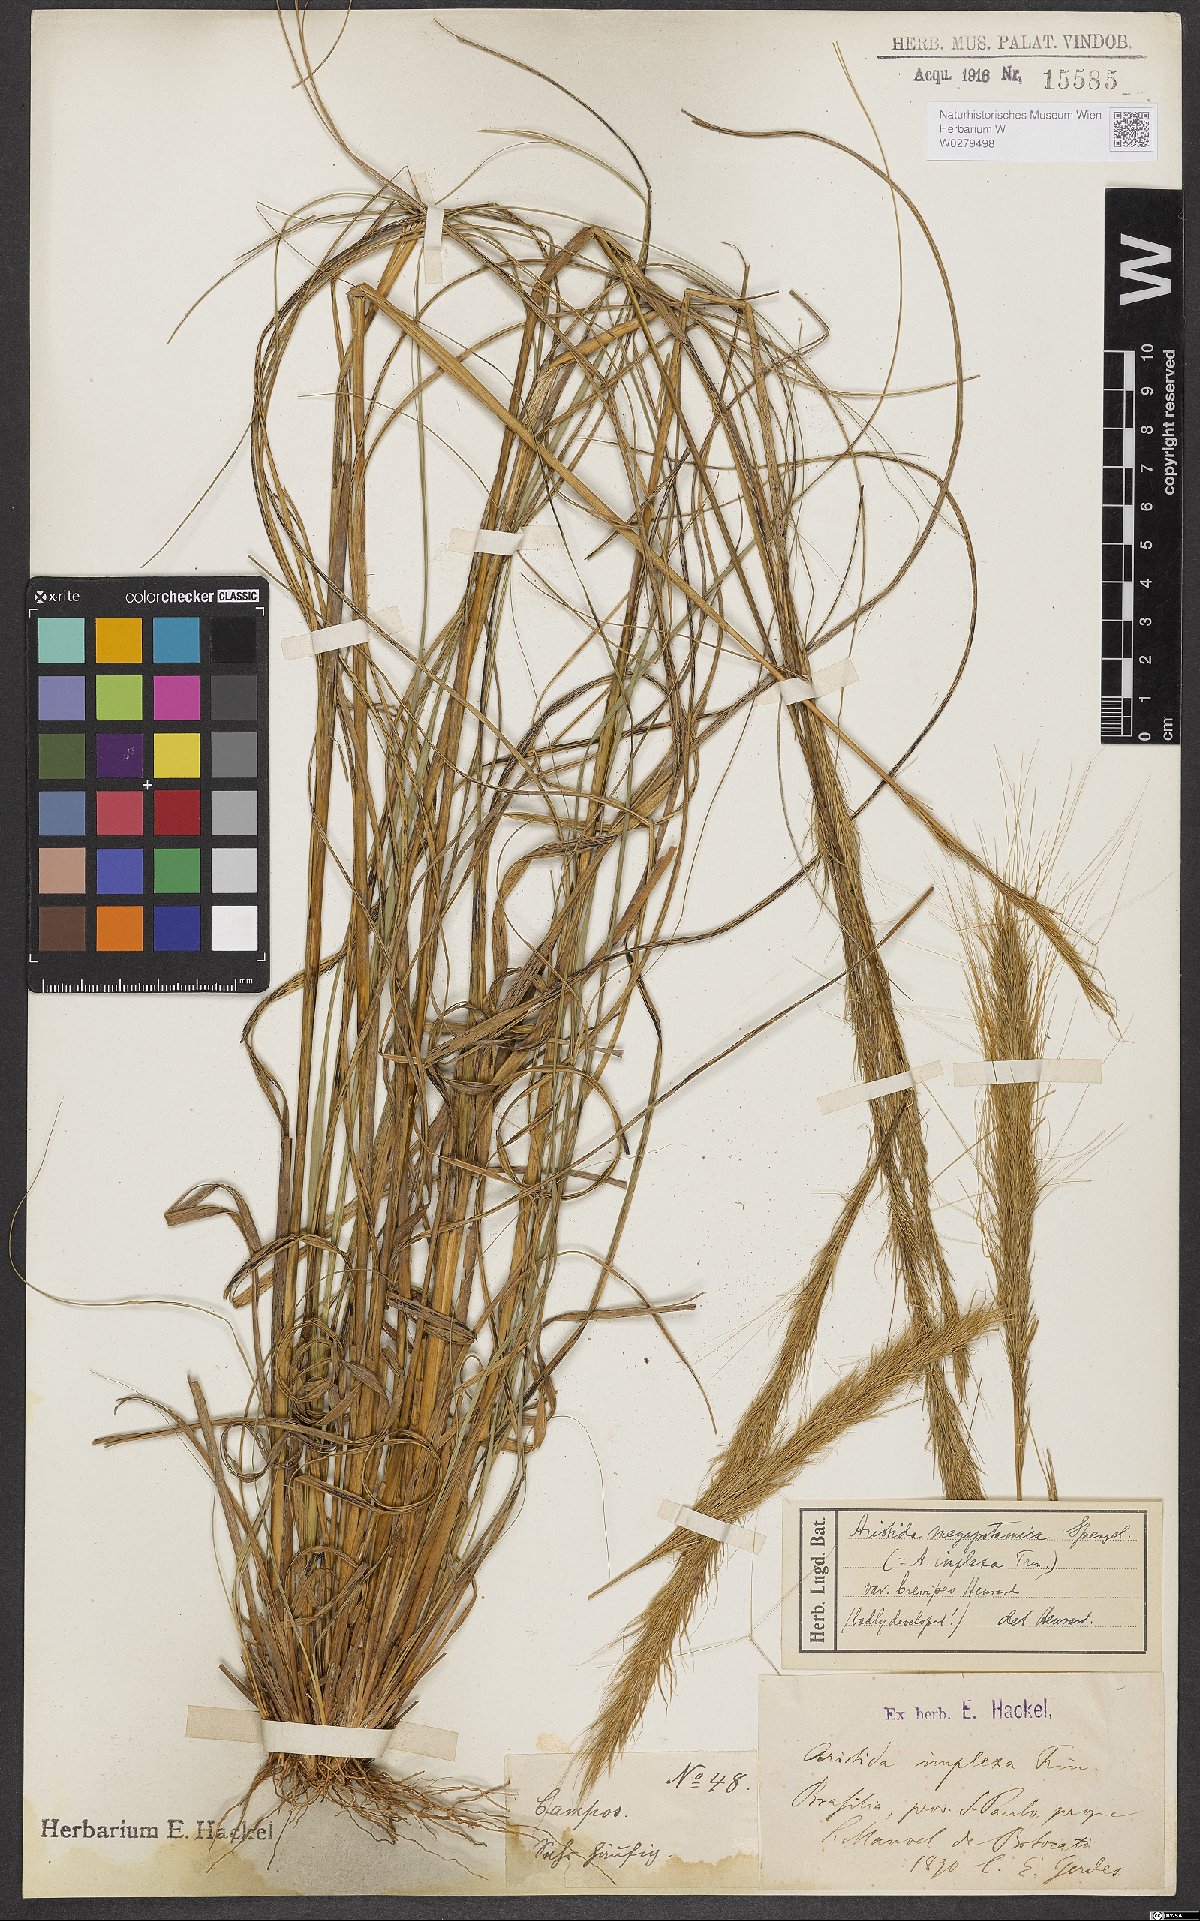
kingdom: Plantae
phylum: Tracheophyta
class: Liliopsida
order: Poales
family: Poaceae
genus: Aristida
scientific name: Aristida megapotamica
